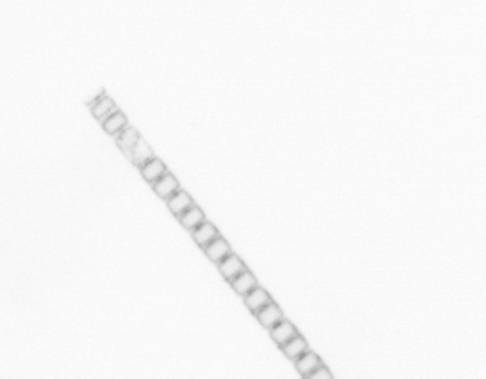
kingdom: Chromista
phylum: Ochrophyta
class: Bacillariophyceae
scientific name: Bacillariophyceae
